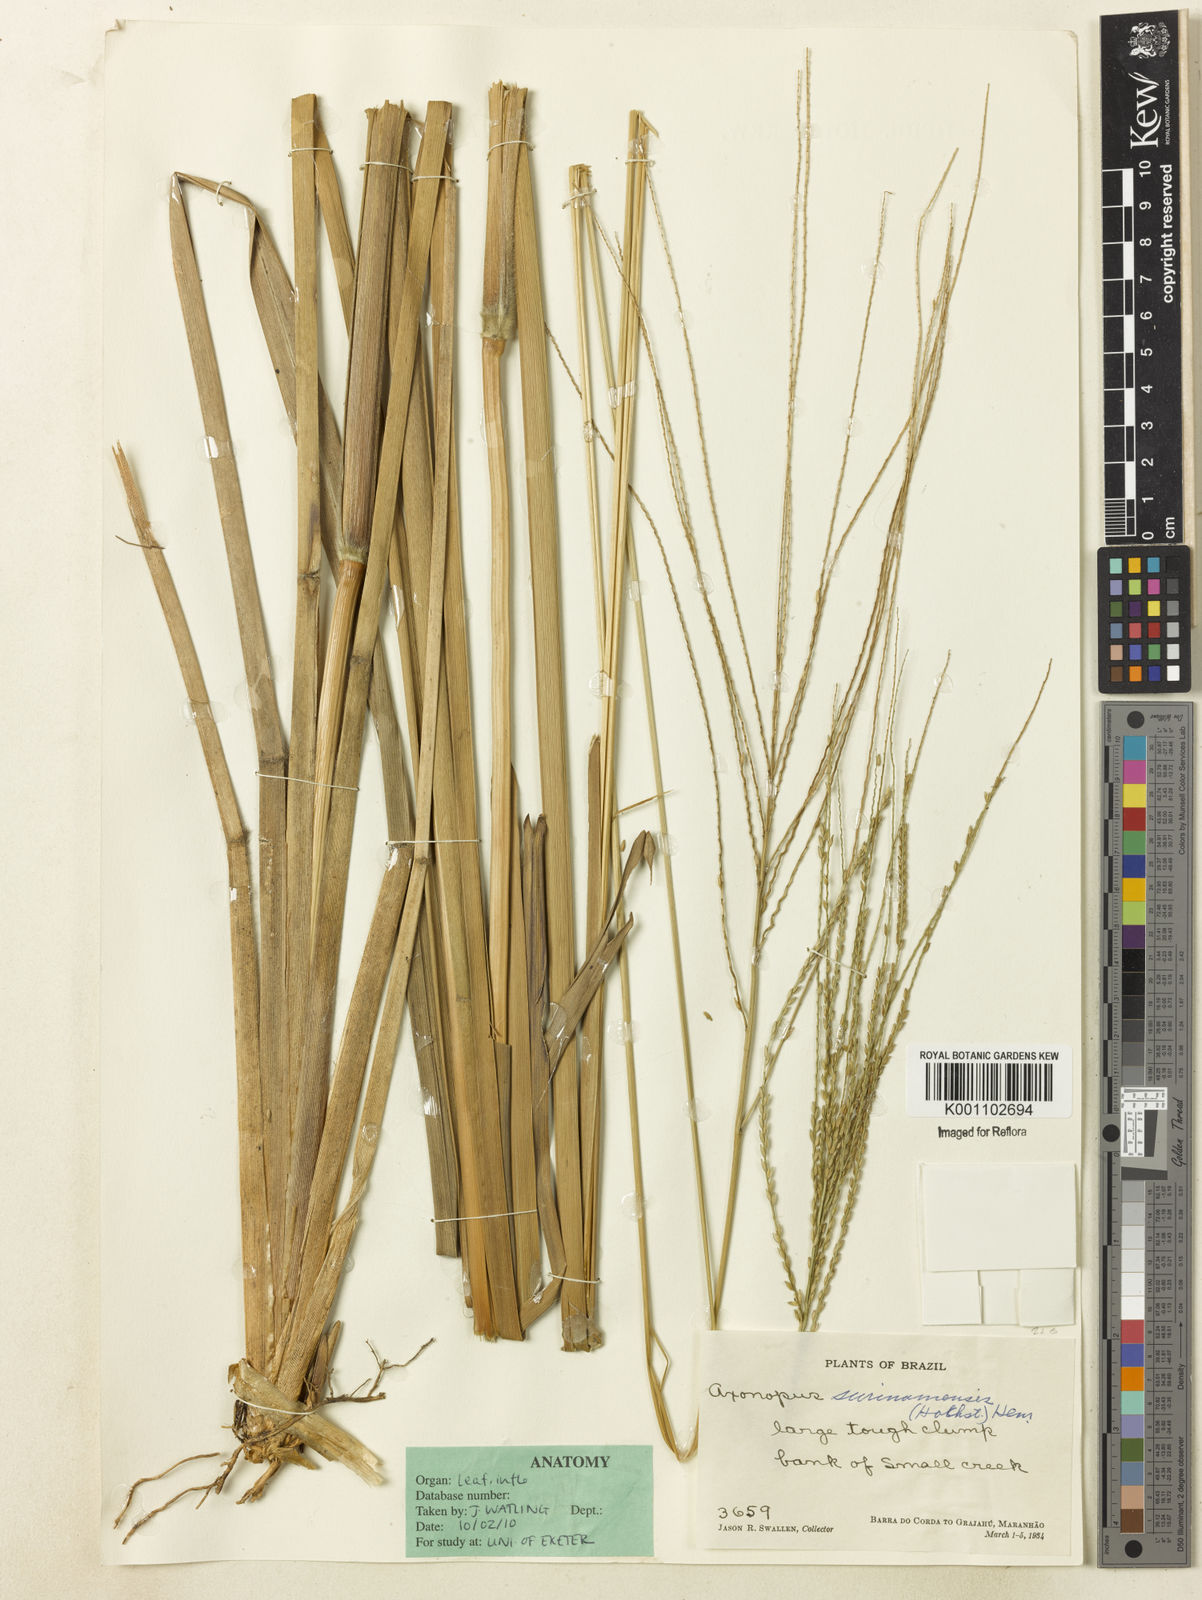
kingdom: Plantae
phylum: Tracheophyta
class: Liliopsida
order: Poales
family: Poaceae
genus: Axonopus
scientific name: Axonopus surinamensis
